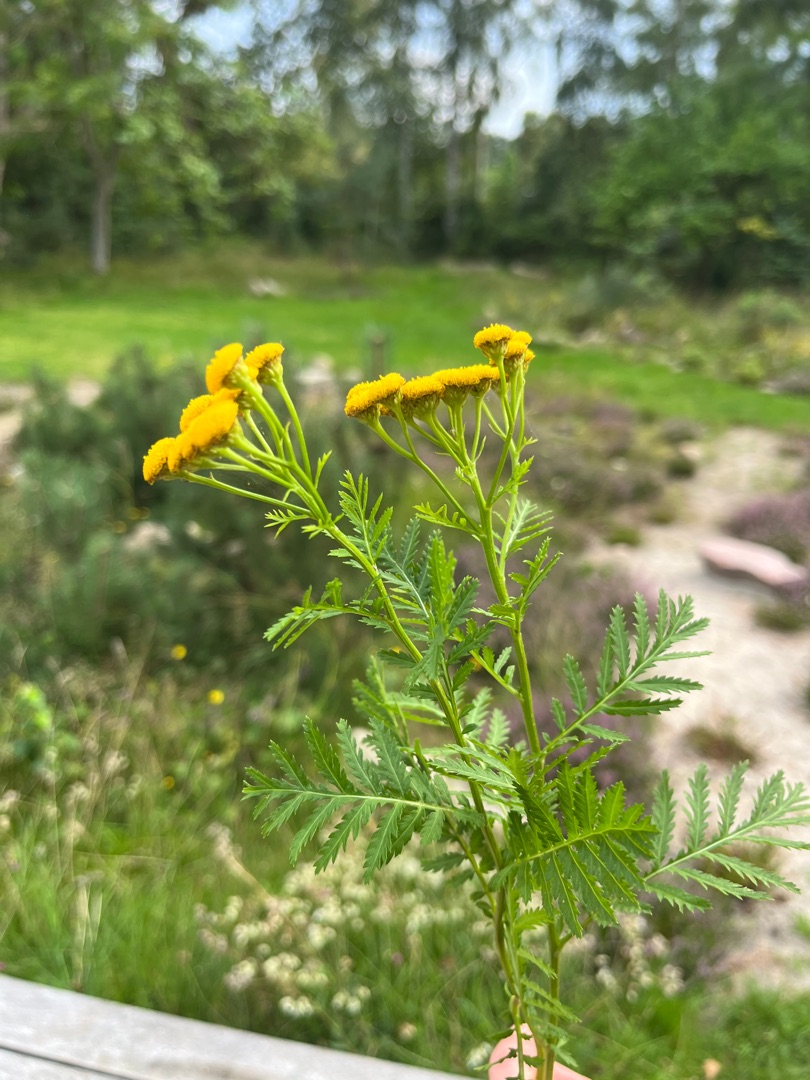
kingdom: Plantae
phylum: Tracheophyta
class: Magnoliopsida
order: Asterales
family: Asteraceae
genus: Tanacetum
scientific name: Tanacetum vulgare
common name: Rejnfan
